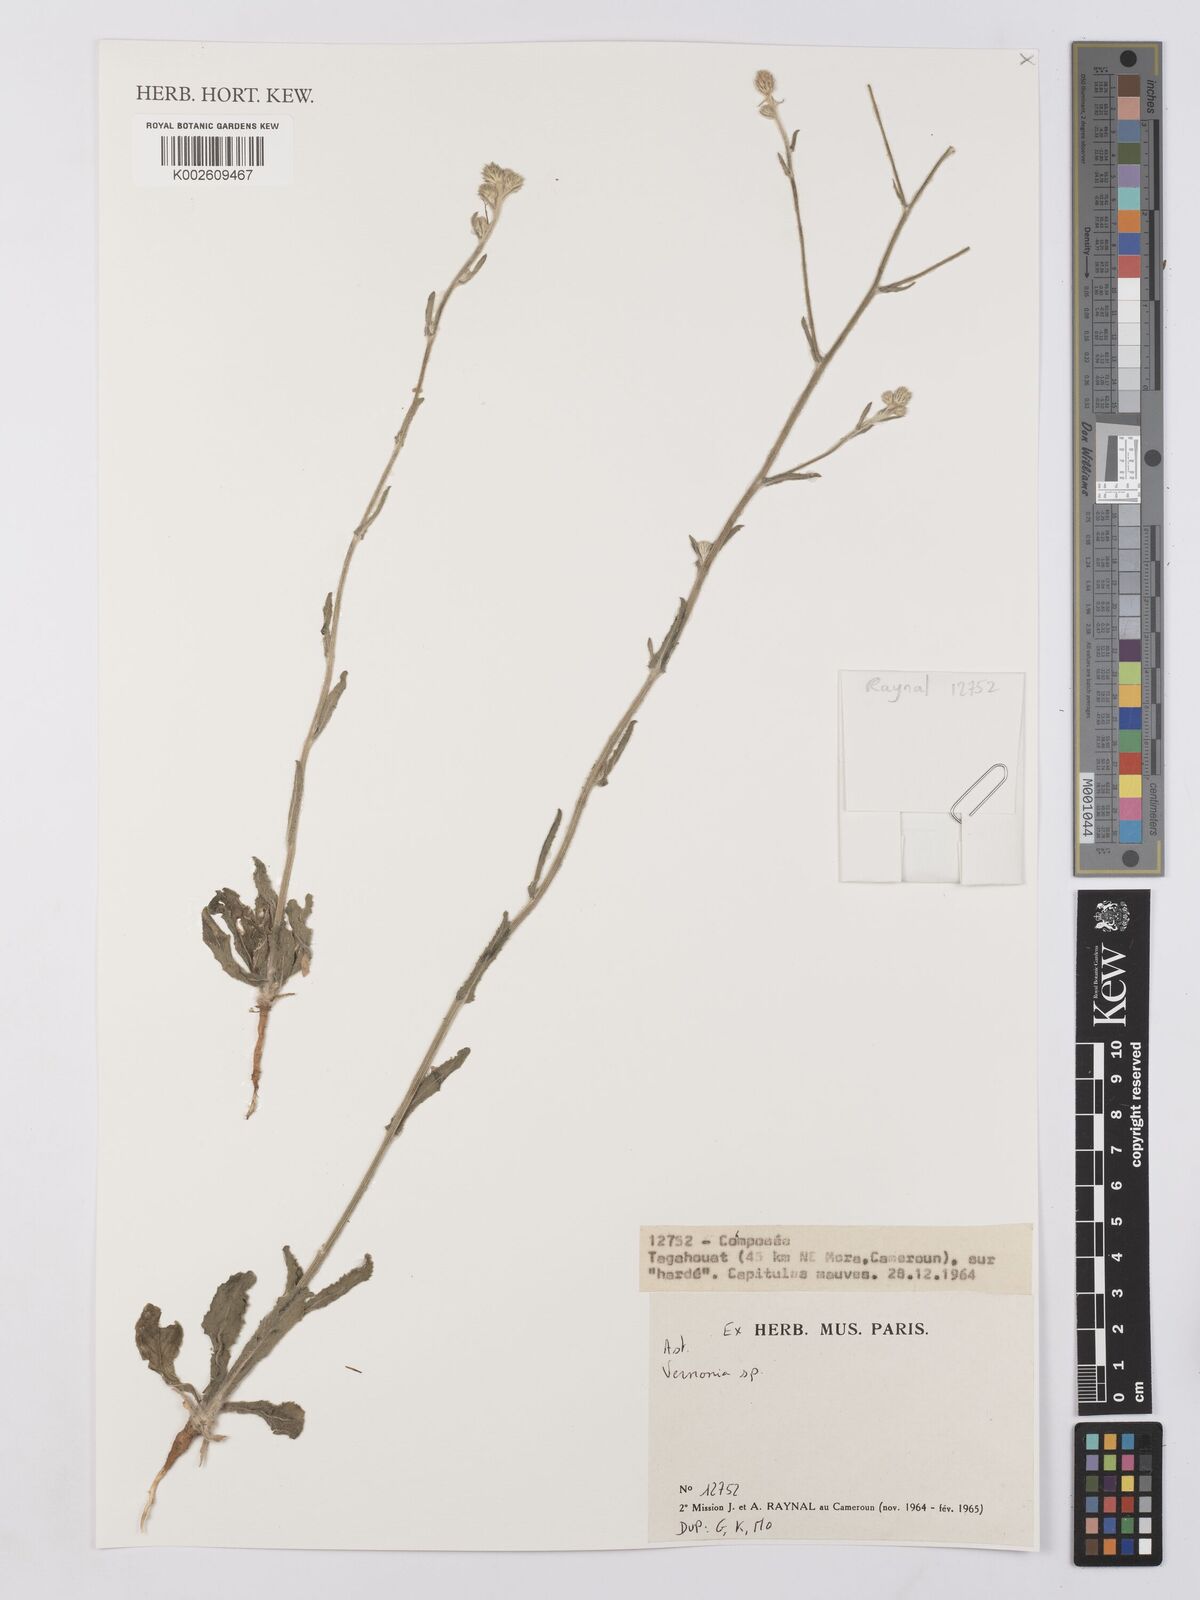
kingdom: Plantae
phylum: Tracheophyta
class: Magnoliopsida
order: Asterales
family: Asteraceae
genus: Vernonia
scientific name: Vernonia
